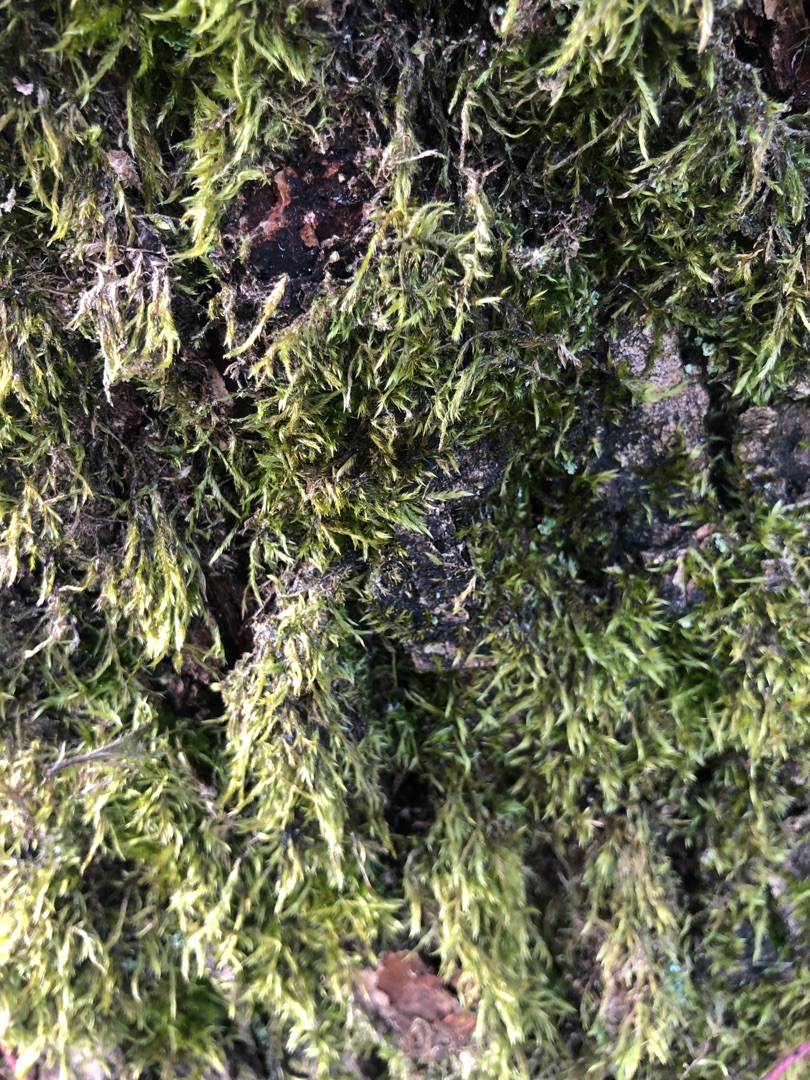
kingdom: Plantae
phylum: Bryophyta
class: Bryopsida
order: Hypnales
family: Hypnaceae
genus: Hypnum
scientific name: Hypnum
